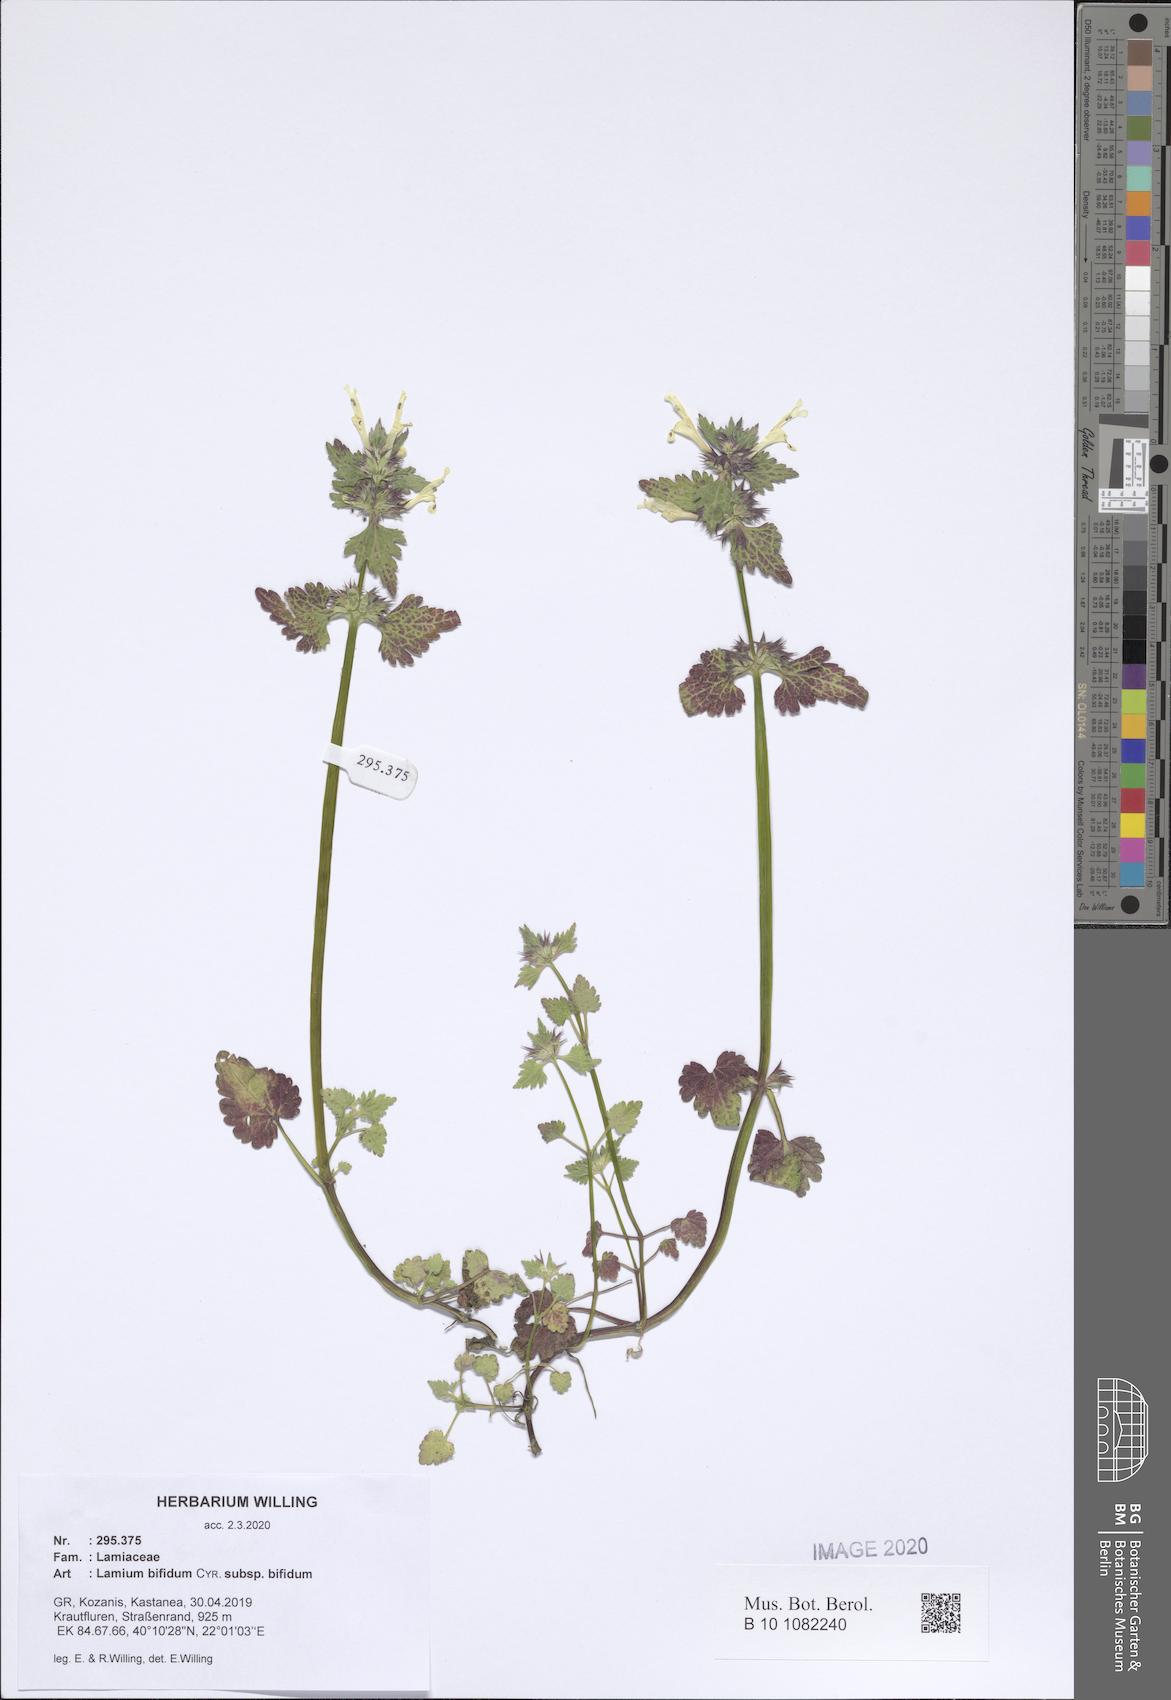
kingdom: Plantae
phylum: Tracheophyta
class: Magnoliopsida
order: Lamiales
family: Lamiaceae
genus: Lamium
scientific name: Lamium bifidum
